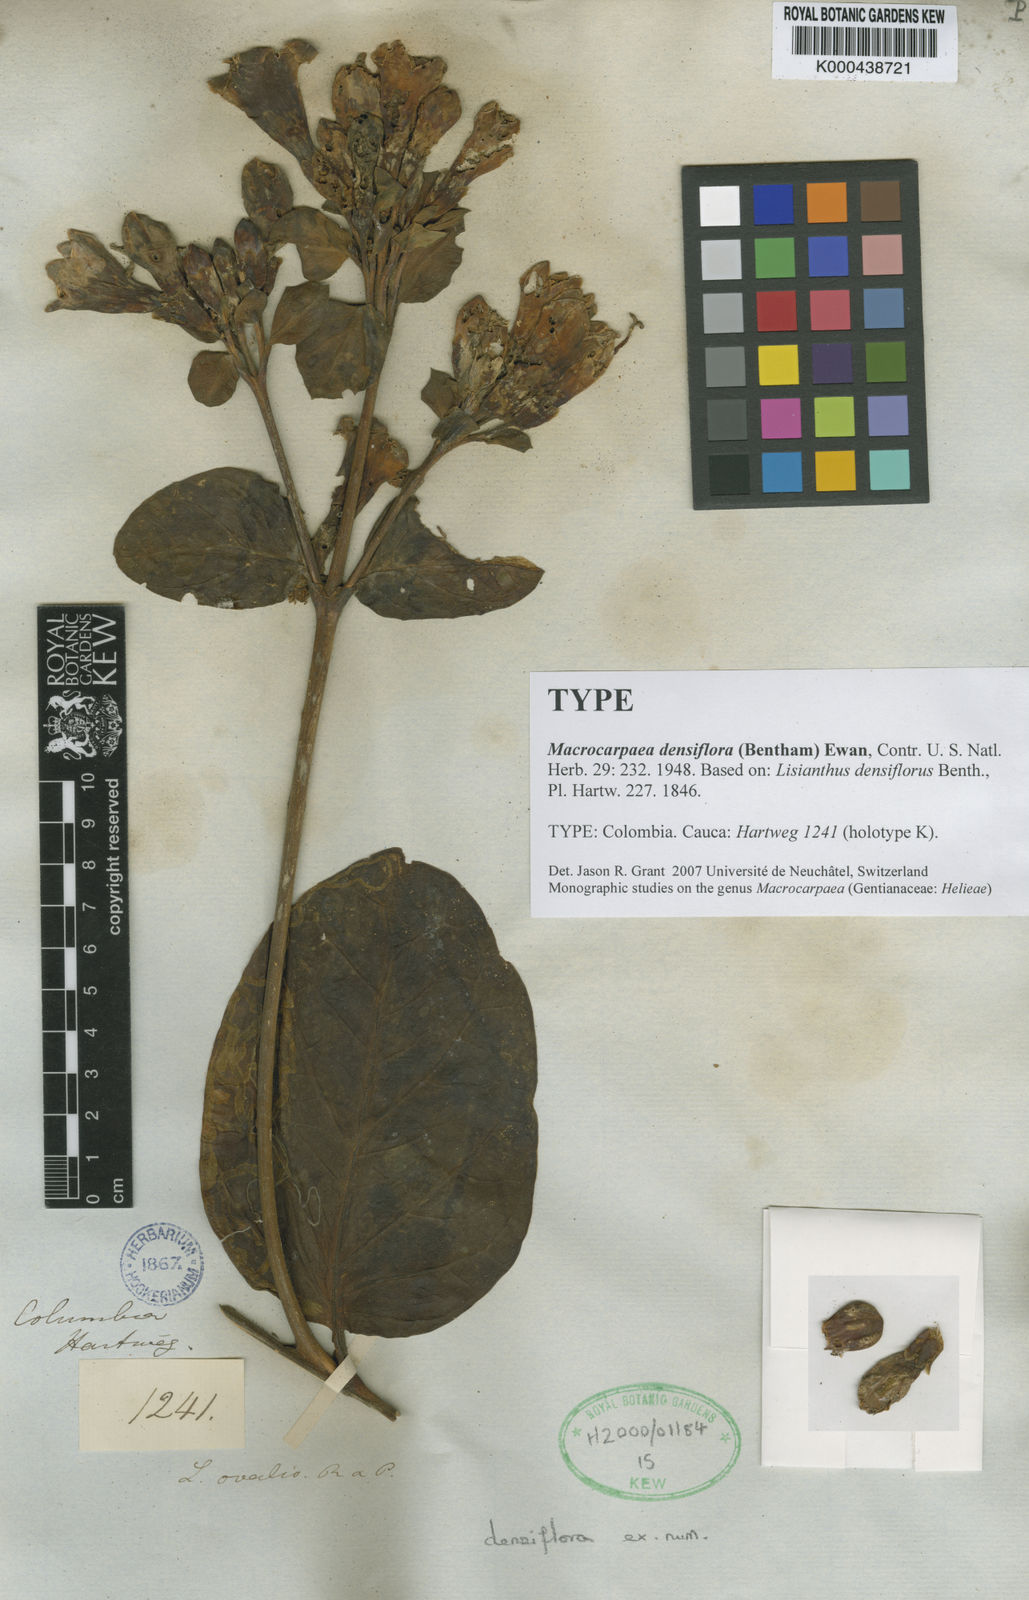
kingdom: Plantae
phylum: Tracheophyta
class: Magnoliopsida
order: Gentianales
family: Gentianaceae
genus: Macrocarpaea
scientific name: Macrocarpaea densiflora
